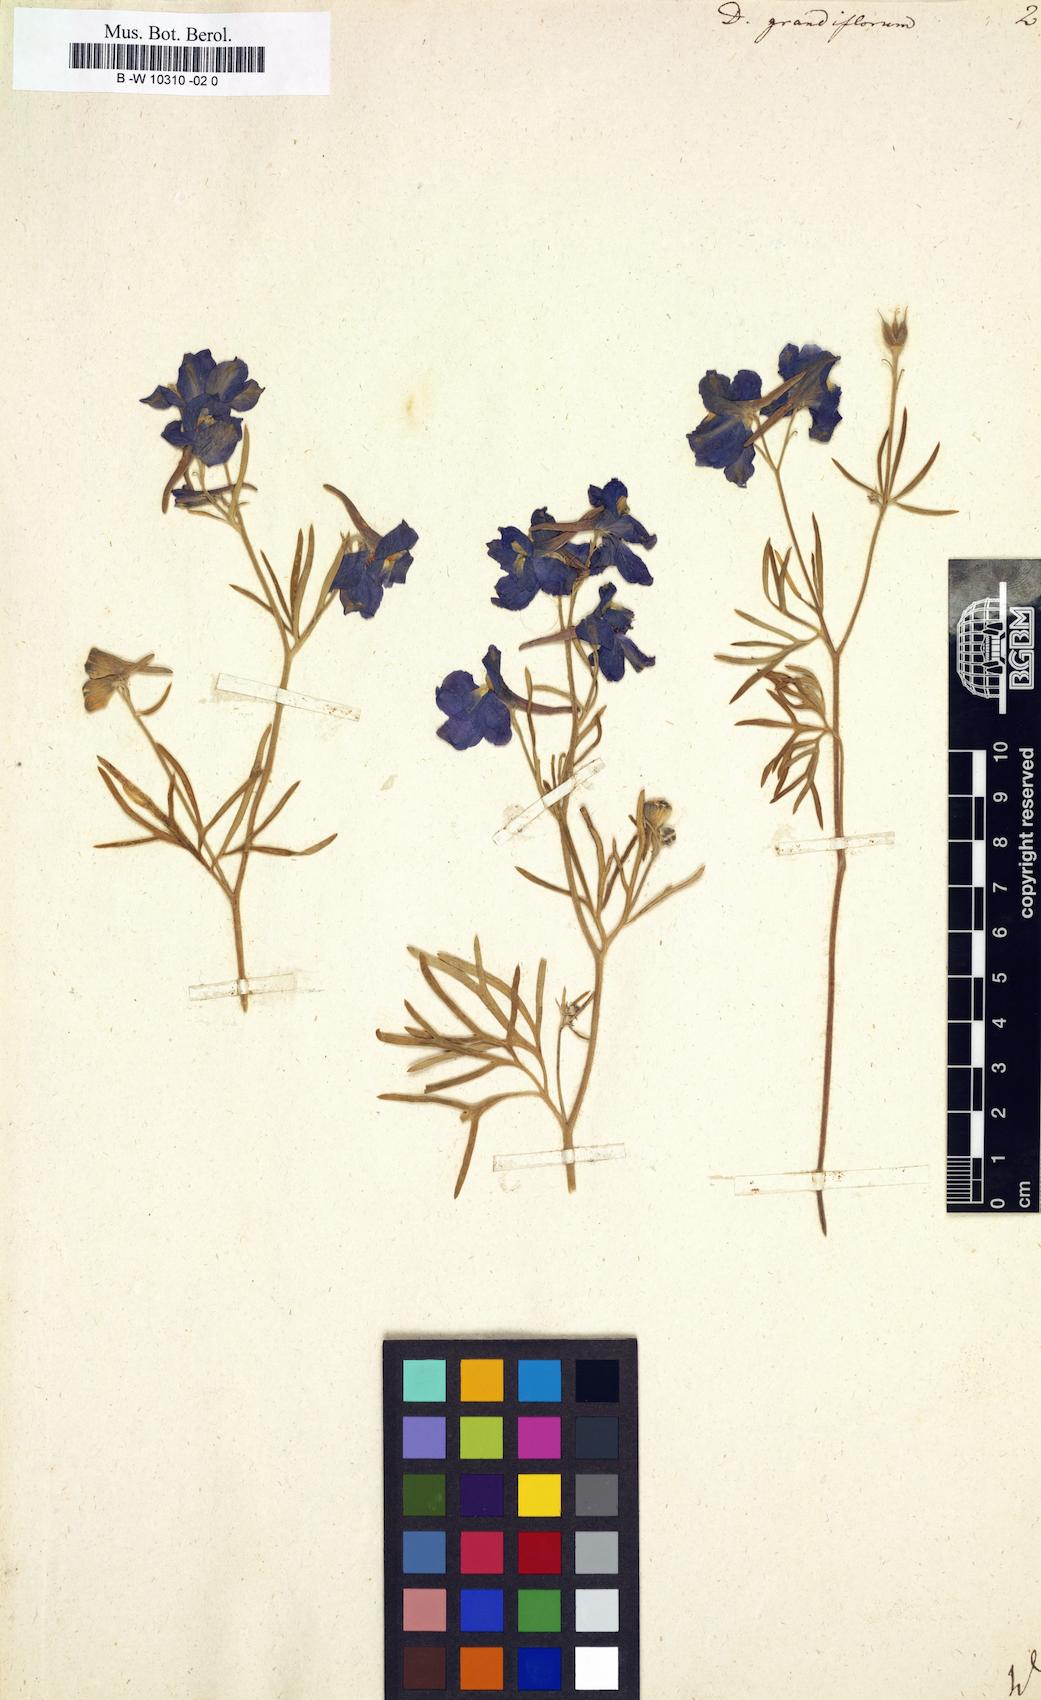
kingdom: Plantae
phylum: Tracheophyta
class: Magnoliopsida
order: Ranunculales
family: Ranunculaceae
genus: Delphinium
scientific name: Delphinium grandiflorum
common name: Siberian larkspur
